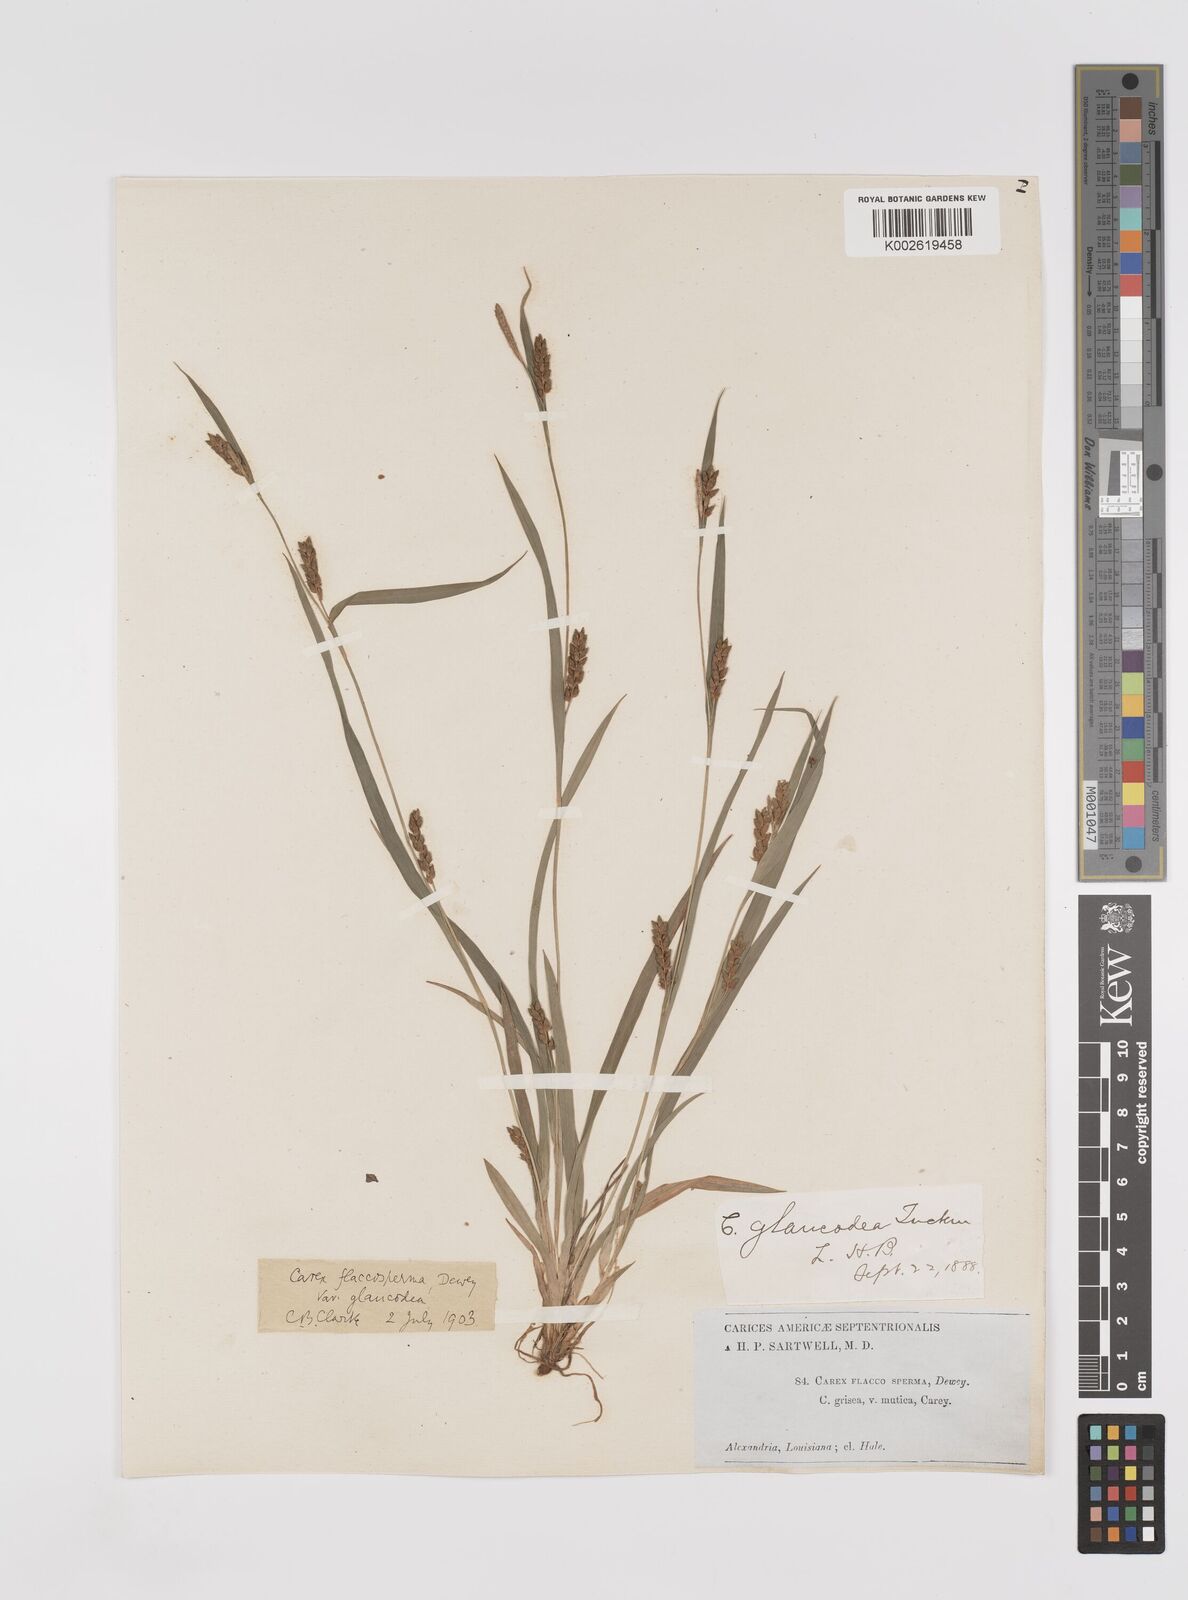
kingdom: Plantae
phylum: Tracheophyta
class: Liliopsida
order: Poales
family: Cyperaceae
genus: Carex
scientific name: Carex flaccosperma
